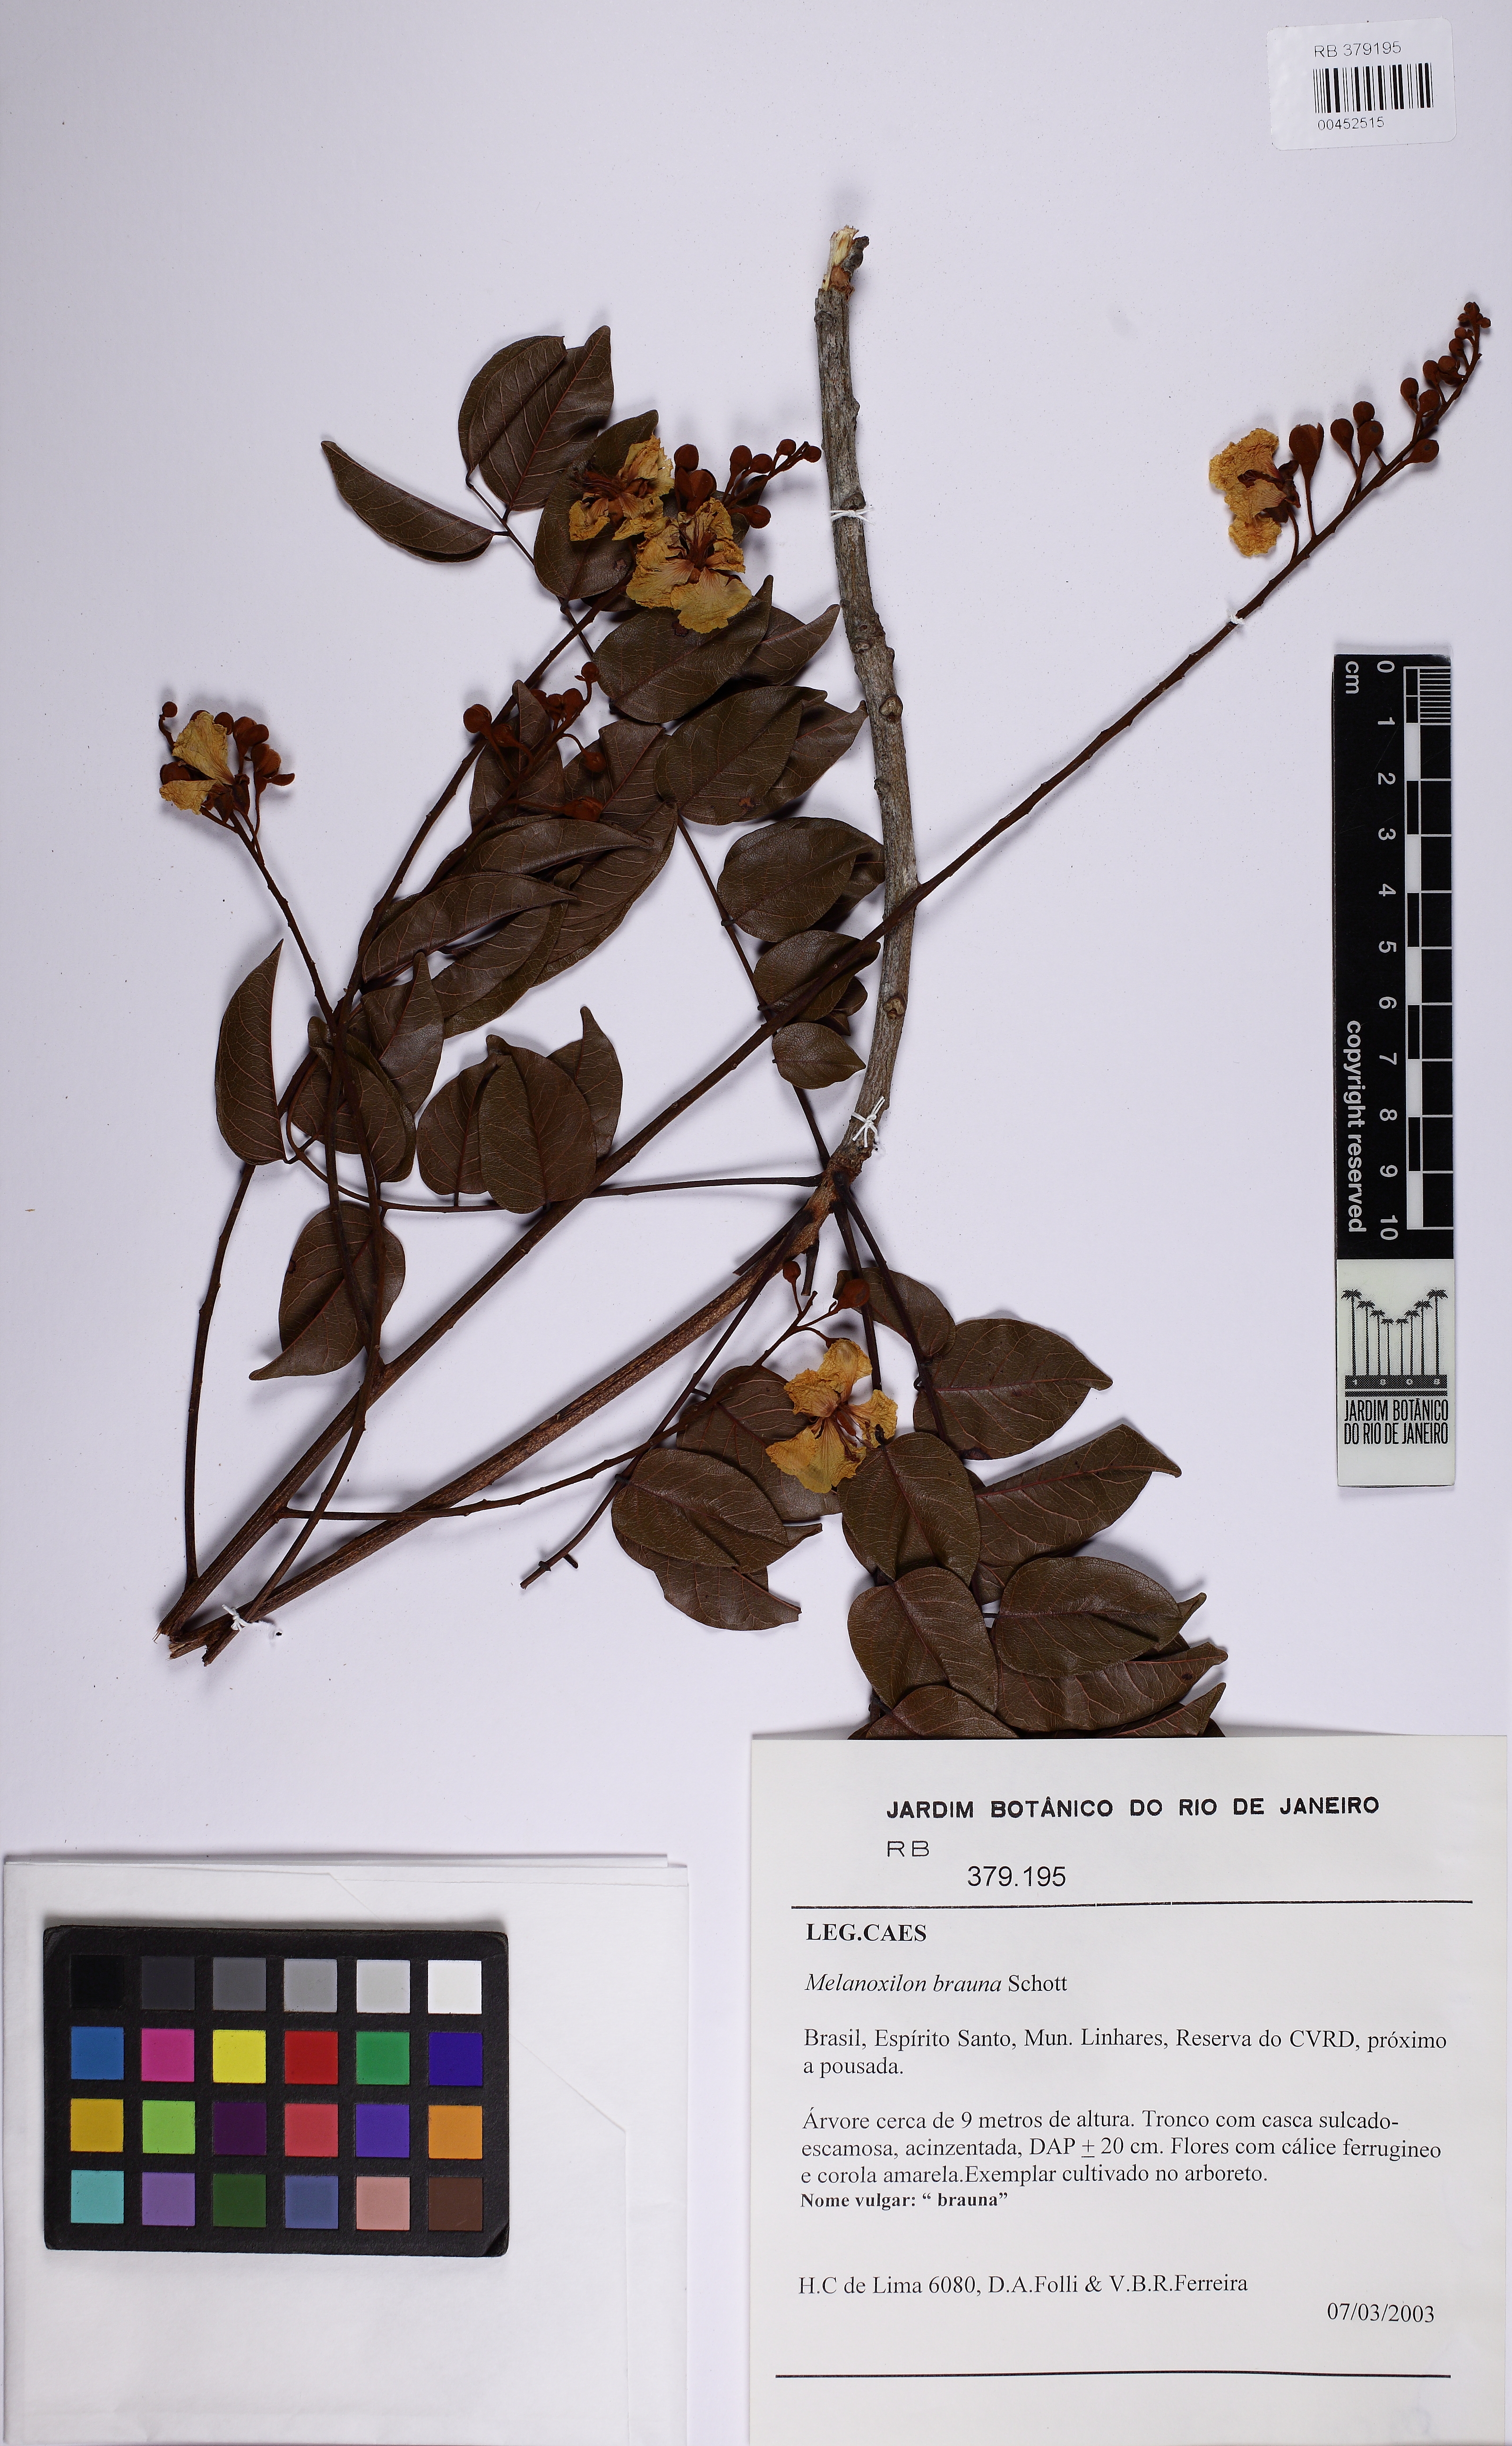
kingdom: Plantae
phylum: Tracheophyta
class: Magnoliopsida
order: Fabales
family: Fabaceae
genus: Melanoxylon
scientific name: Melanoxylon brauna
